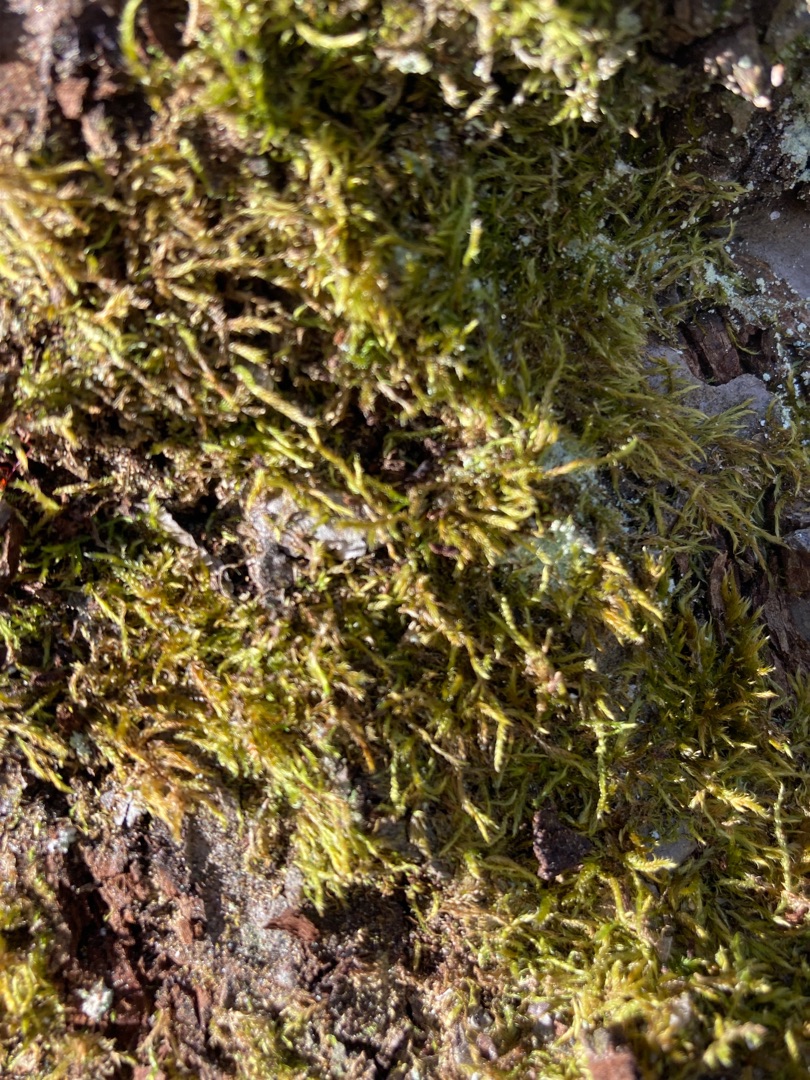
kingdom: Plantae
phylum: Bryophyta
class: Bryopsida
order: Hypnales
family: Hypnaceae
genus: Hypnum
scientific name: Hypnum cupressiforme
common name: Almindelig cypresmos
